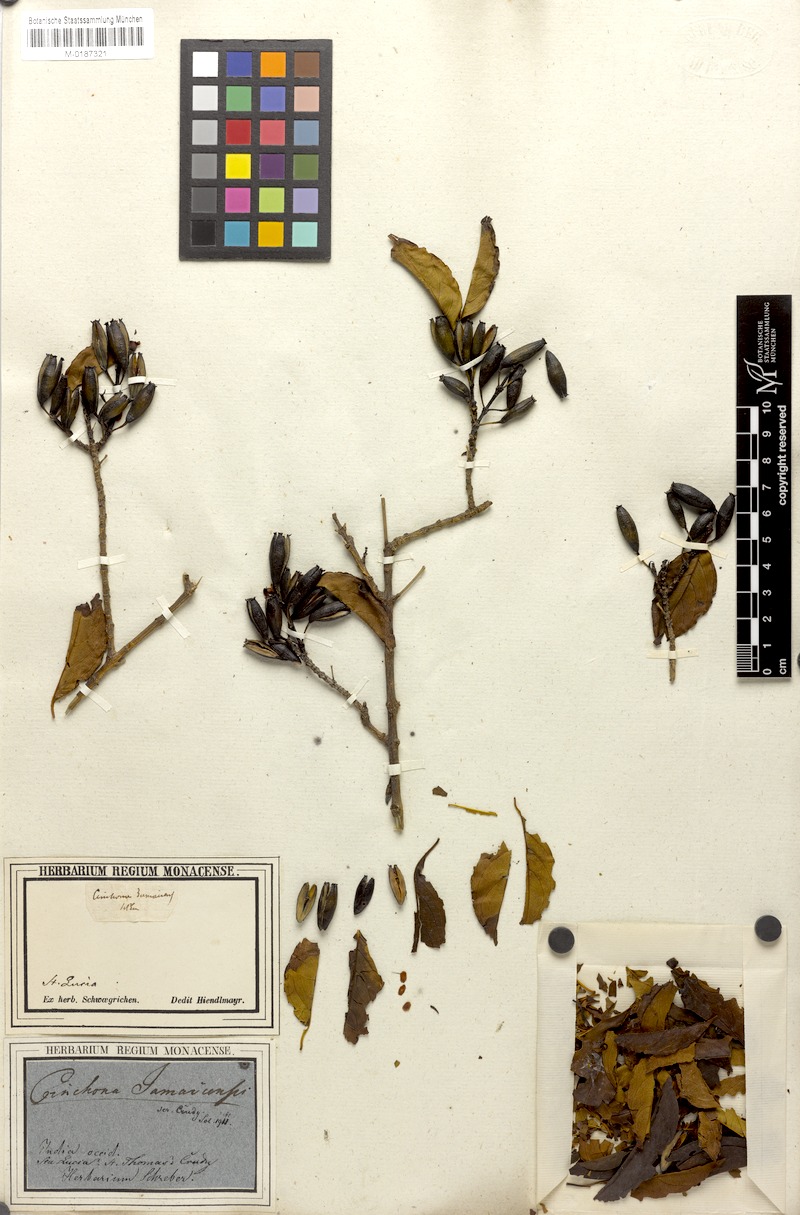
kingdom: Plantae
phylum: Tracheophyta
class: Magnoliopsida
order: Gentianales
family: Rubiaceae
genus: Exostema
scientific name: Exostema caribaeum
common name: Princewood
